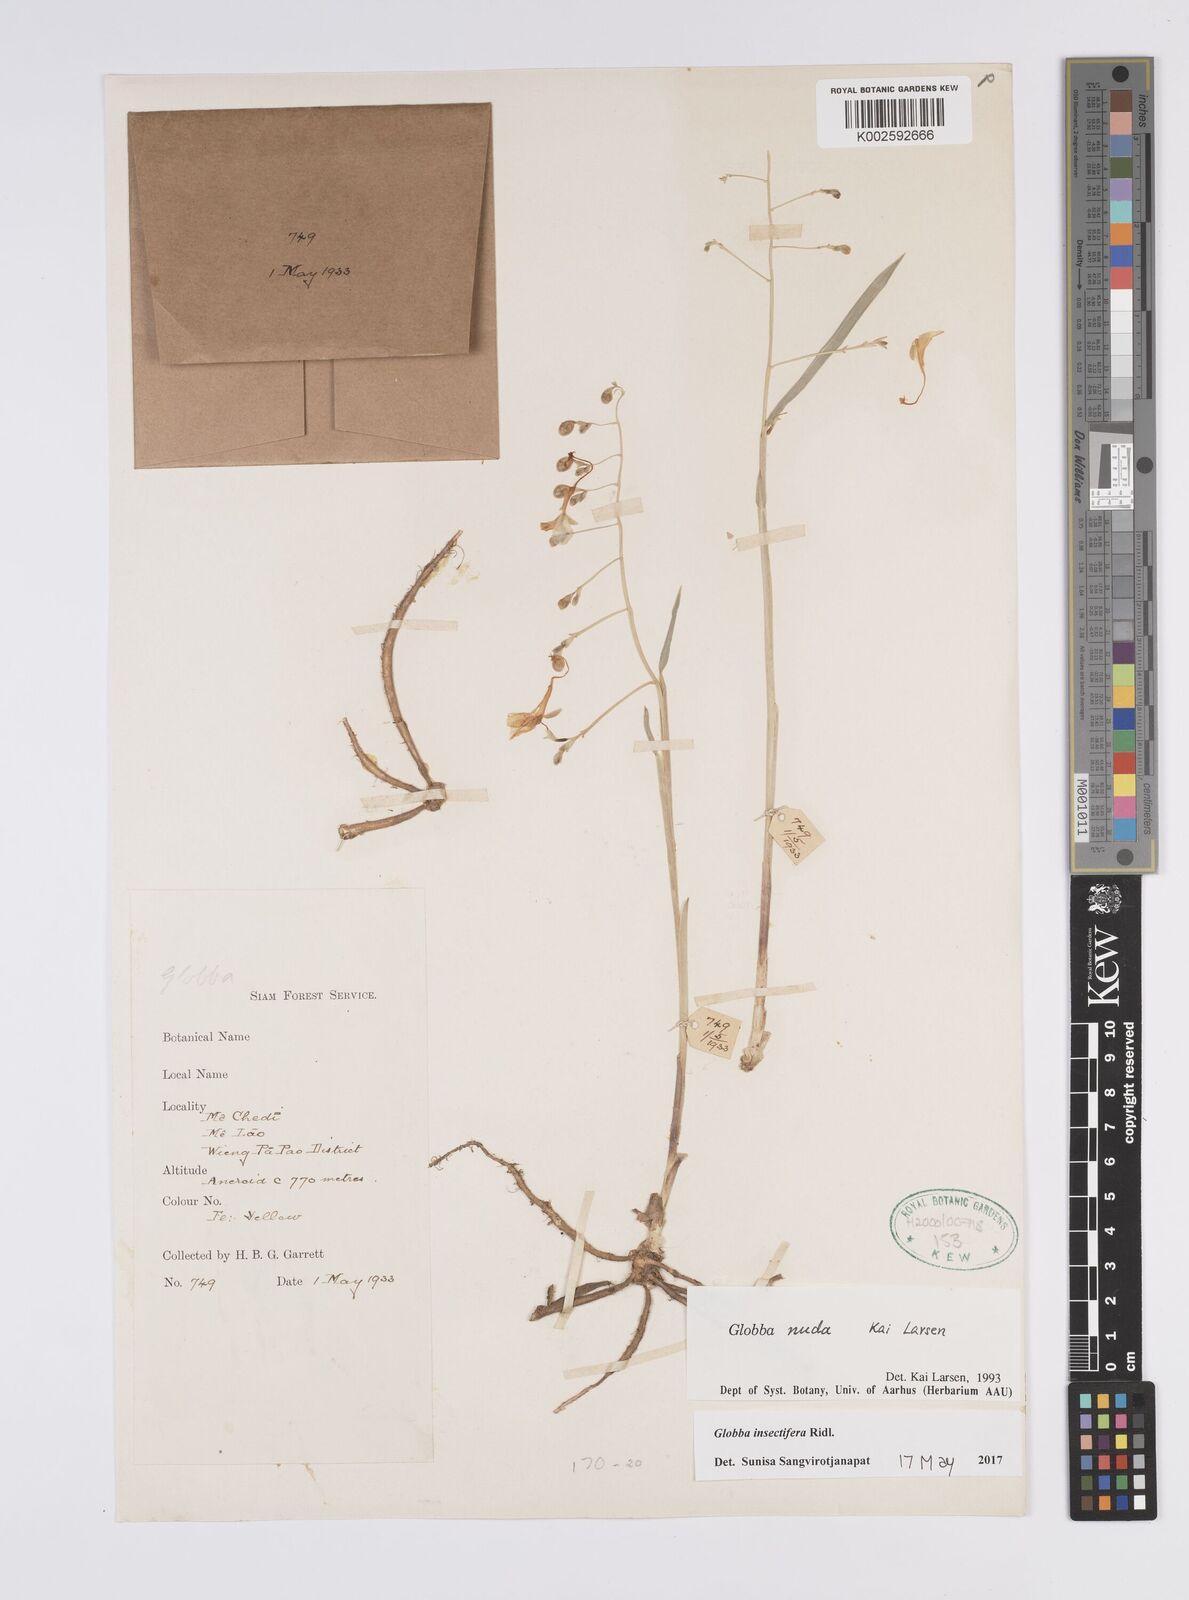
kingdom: Plantae
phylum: Tracheophyta
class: Liliopsida
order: Zingiberales
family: Zingiberaceae
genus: Globba
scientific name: Globba insectifera
